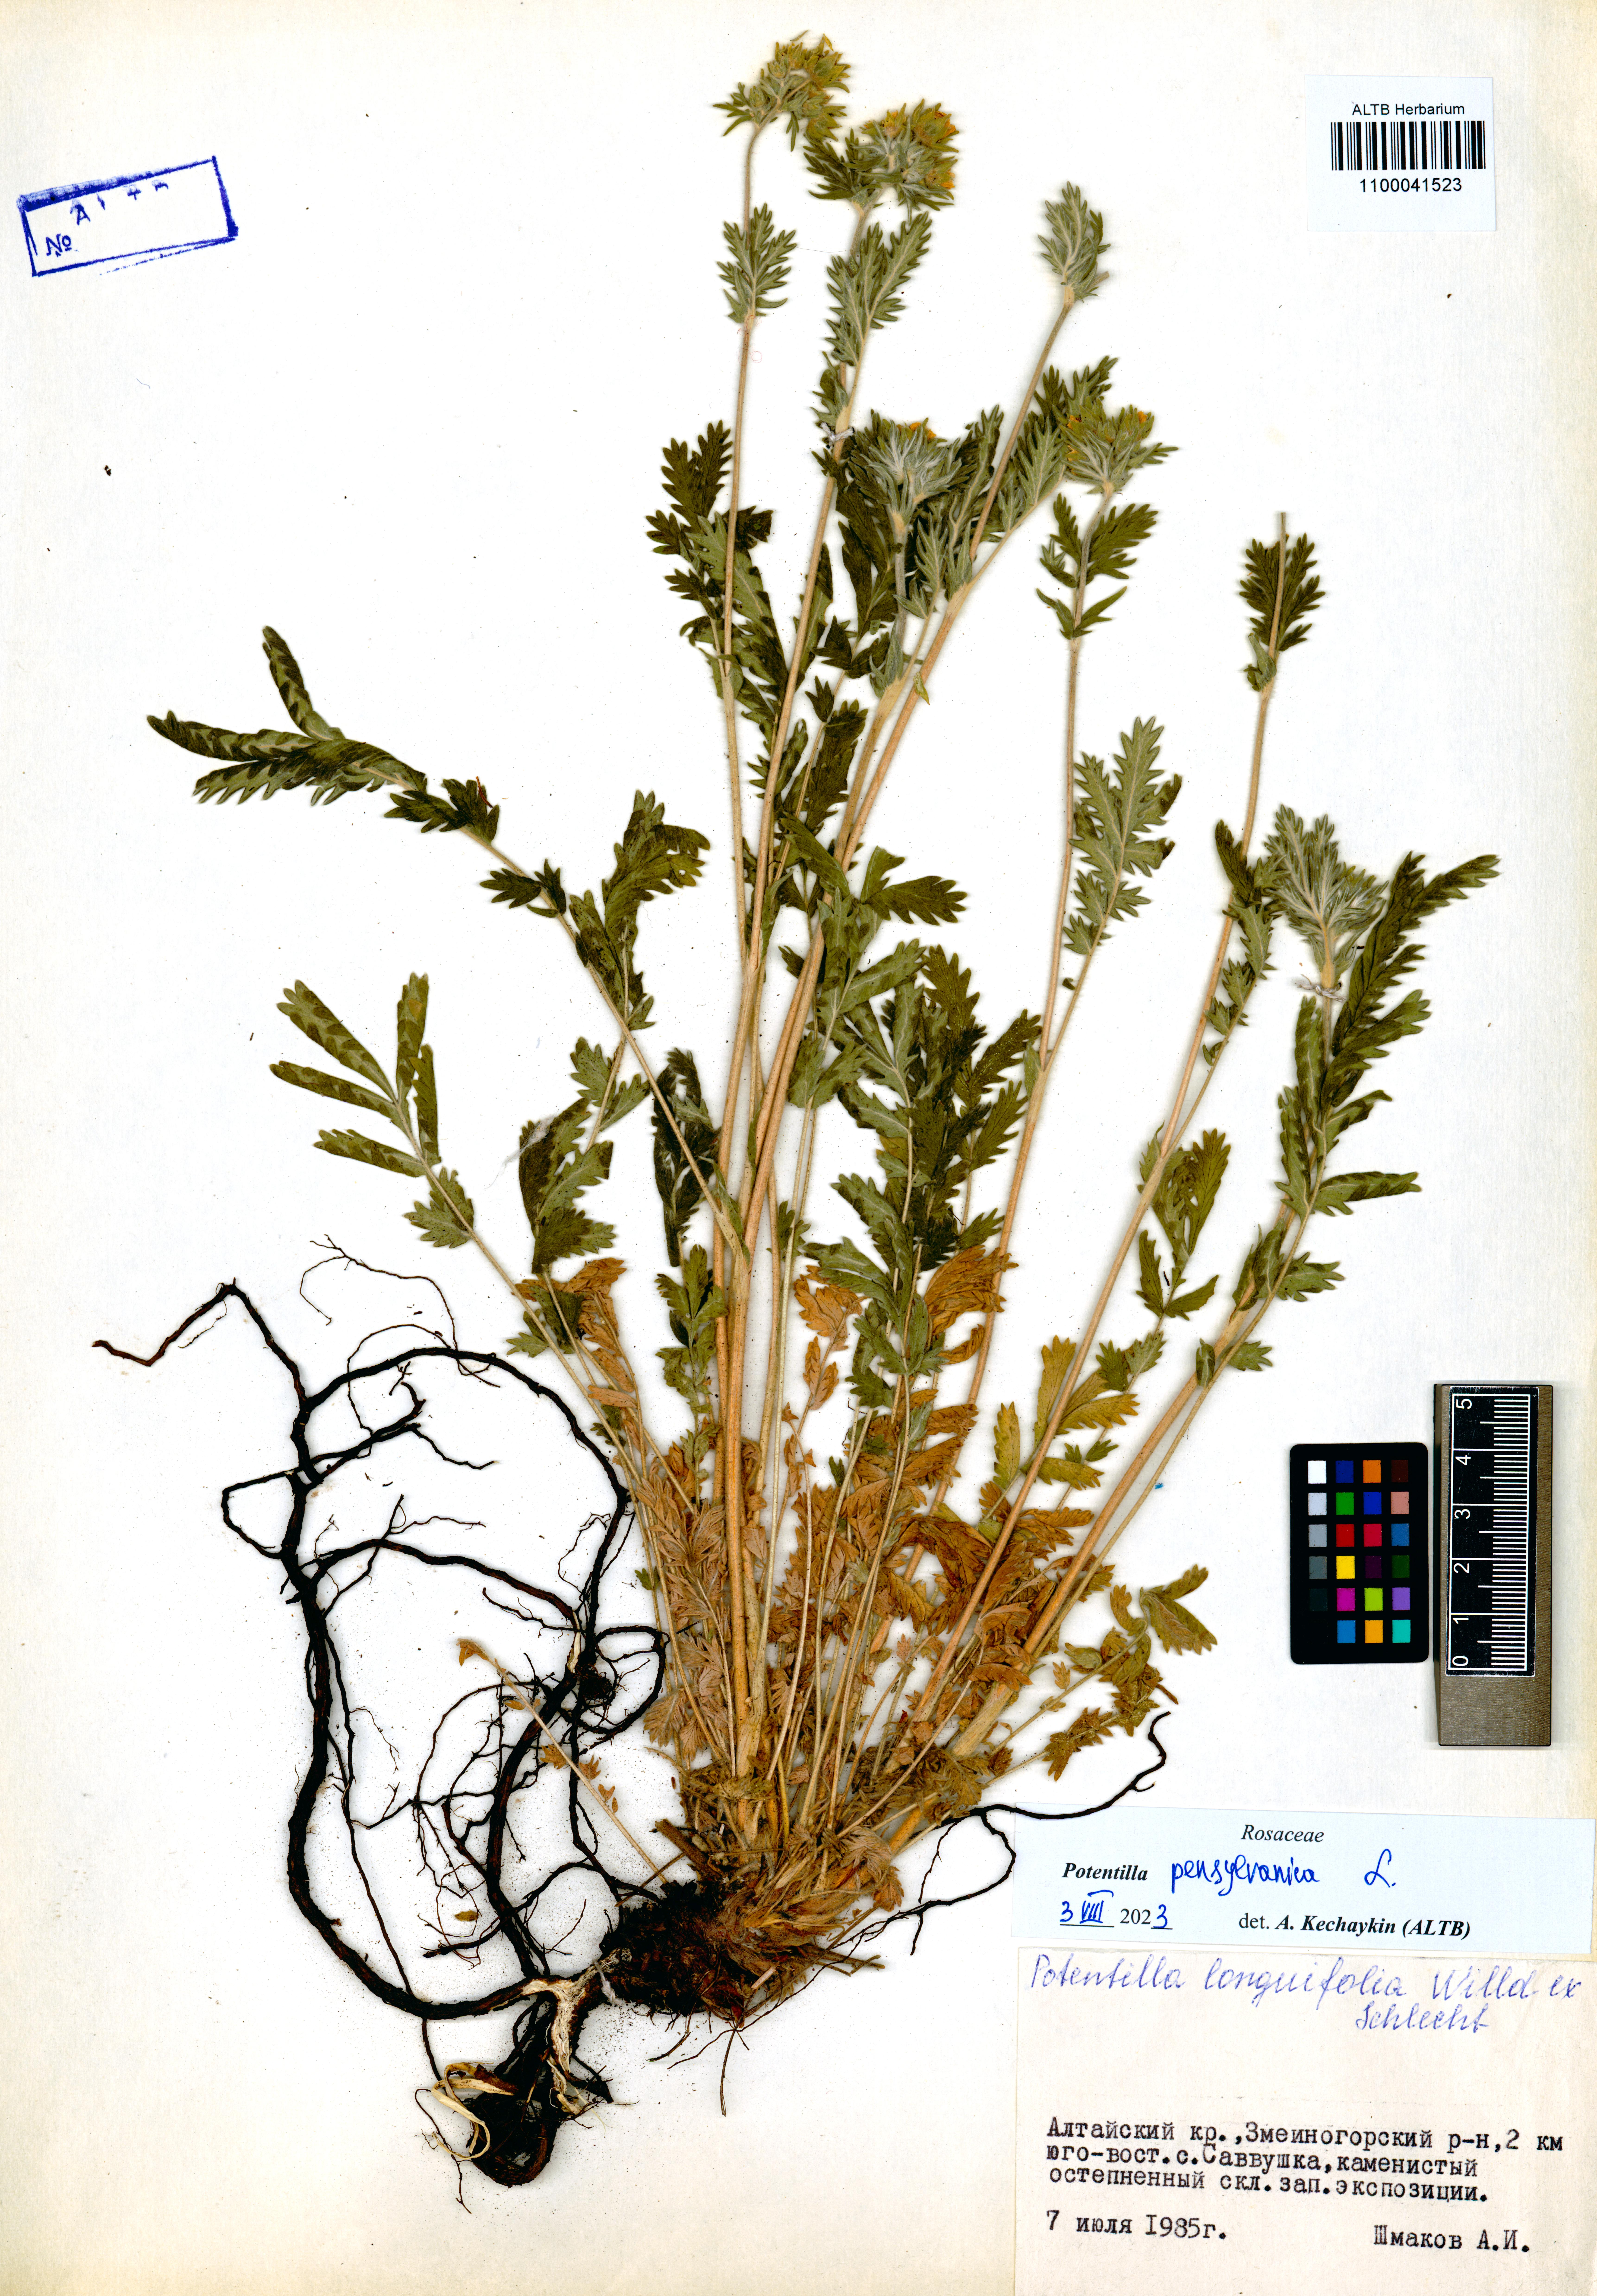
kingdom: Plantae
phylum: Tracheophyta
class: Magnoliopsida
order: Rosales
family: Rosaceae
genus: Potentilla
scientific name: Potentilla pensylvanica
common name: Pennsylvania cinquefoil
